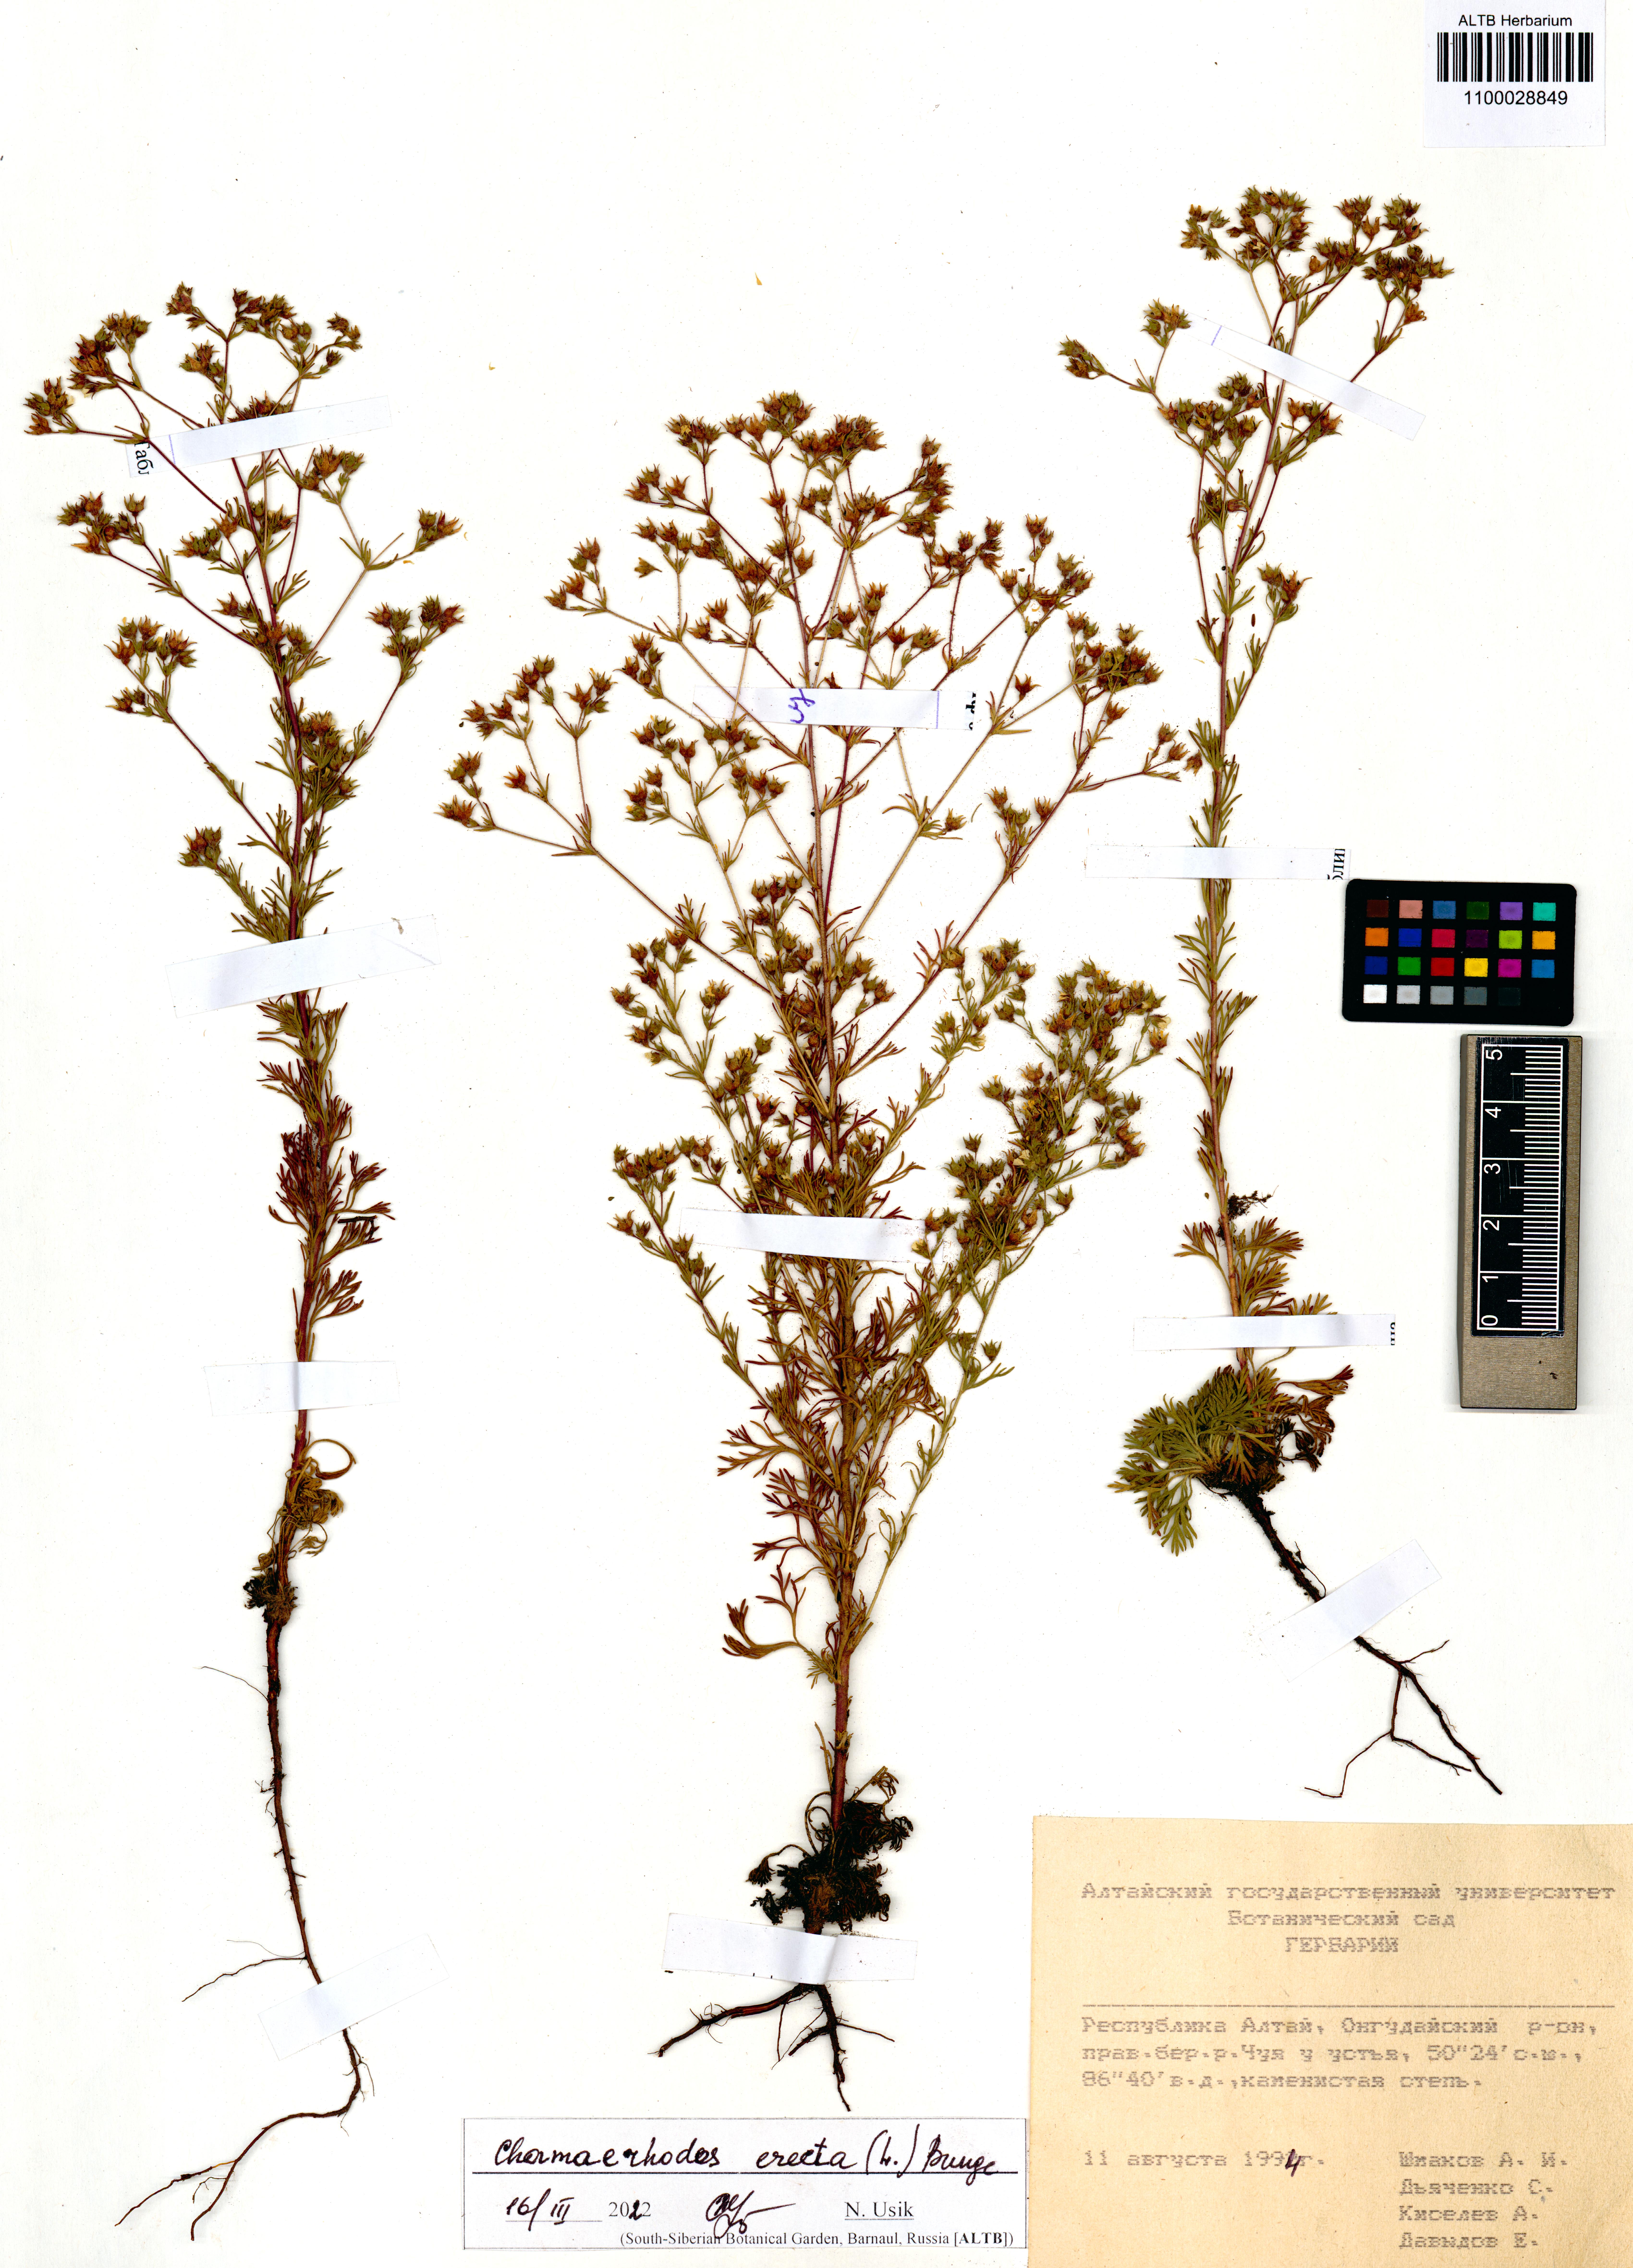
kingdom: Plantae
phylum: Tracheophyta
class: Magnoliopsida
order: Rosales
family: Rosaceae
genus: Chamaerhodos
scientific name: Chamaerhodos erecta
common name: American chamaerhodos
